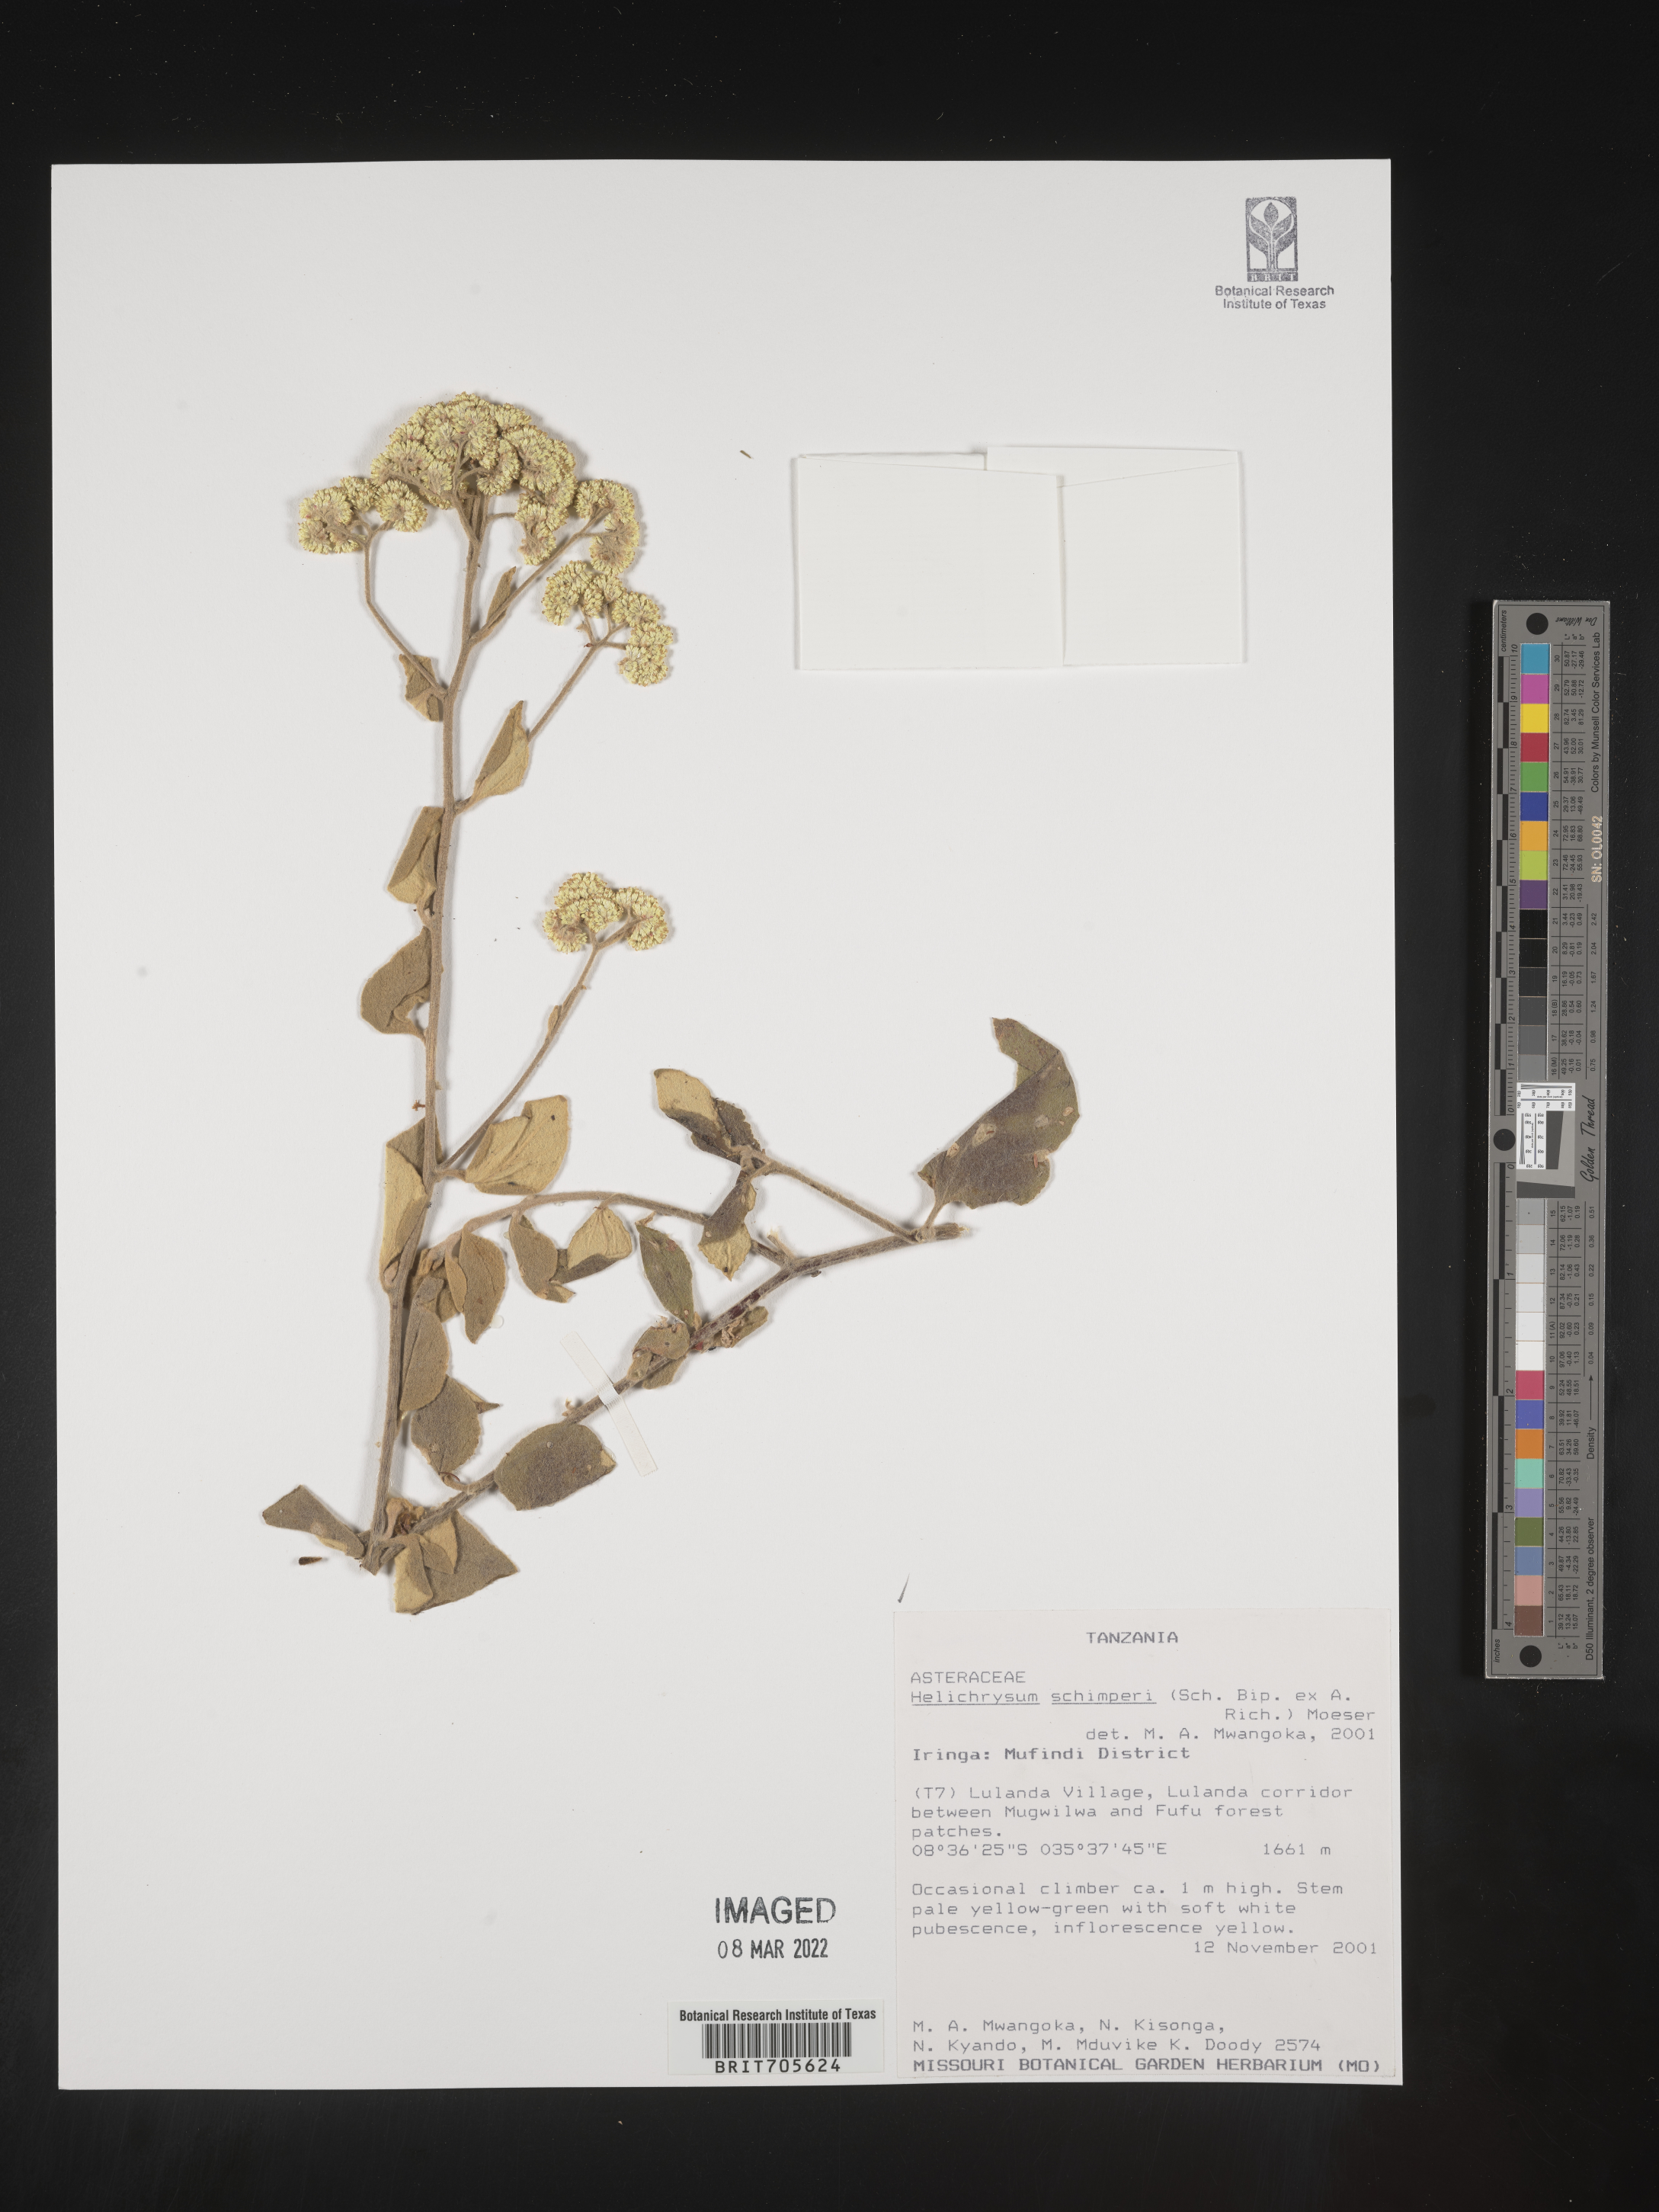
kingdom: Plantae
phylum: Tracheophyta
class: Magnoliopsida
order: Asterales
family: Asteraceae
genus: Helichrysum
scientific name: Helichrysum schimperi
